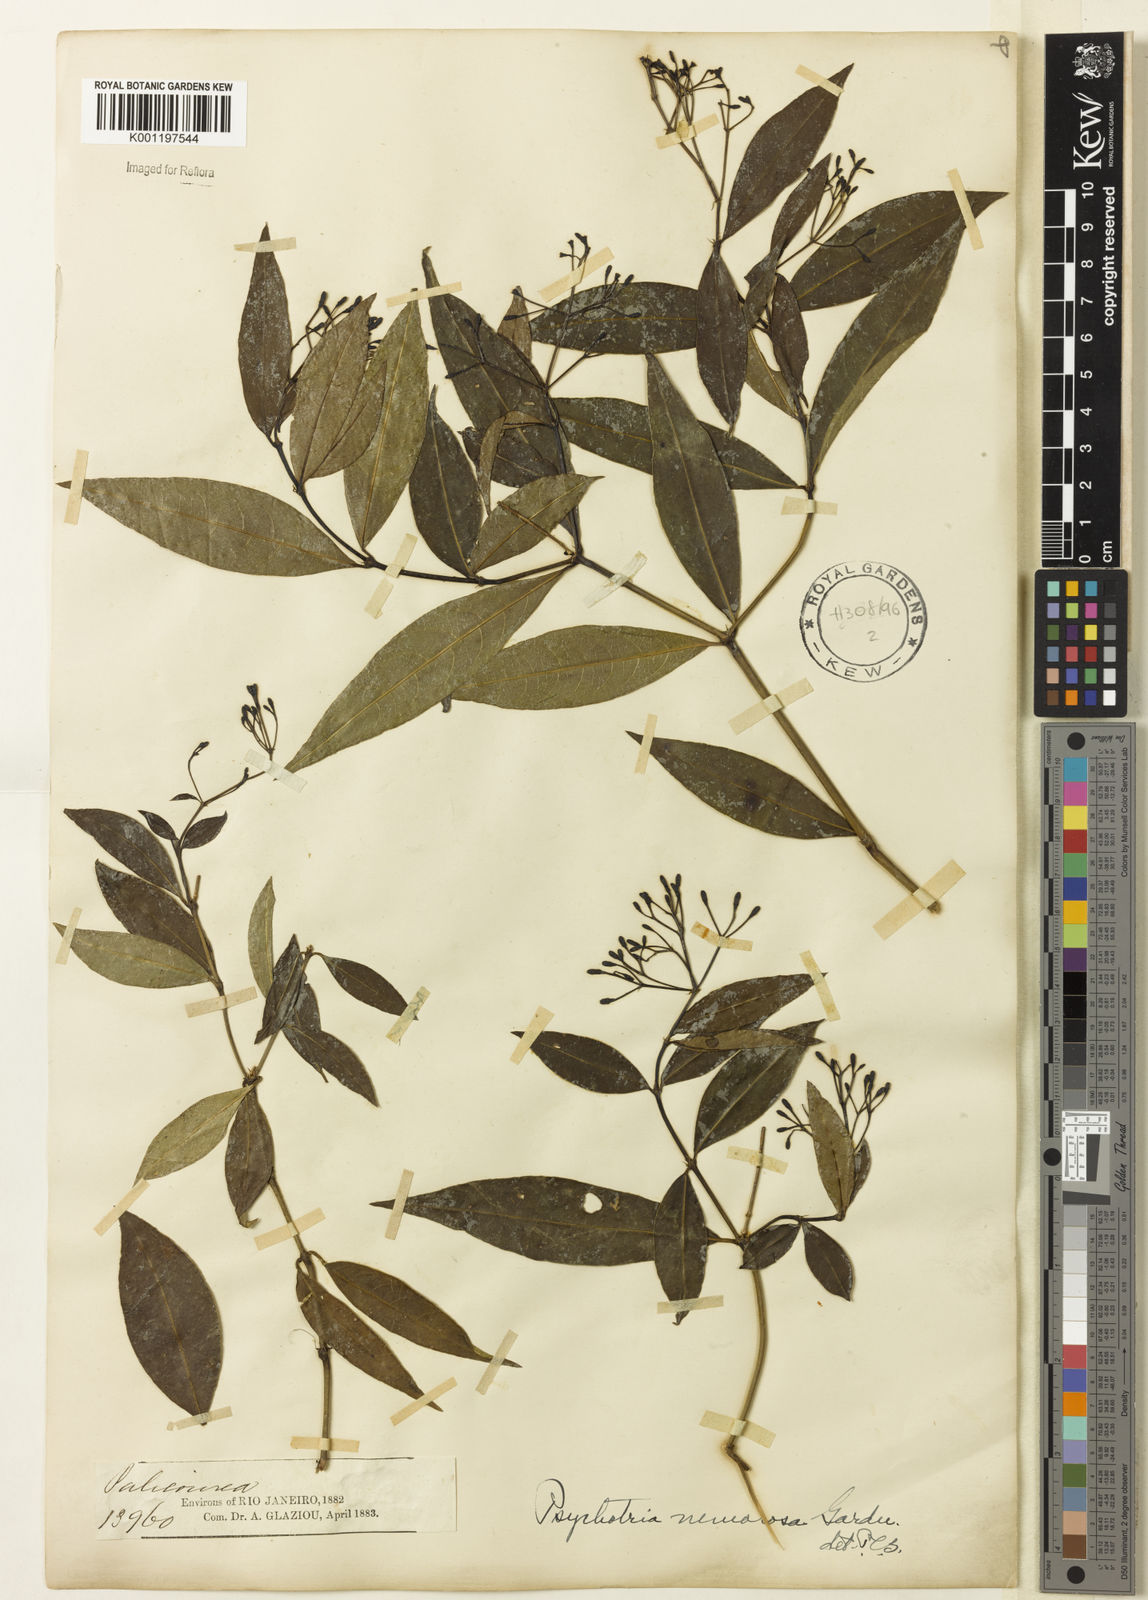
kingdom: Plantae
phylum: Tracheophyta
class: Magnoliopsida
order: Gentianales
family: Rubiaceae
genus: Psychotria
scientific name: Psychotria nemorosa
